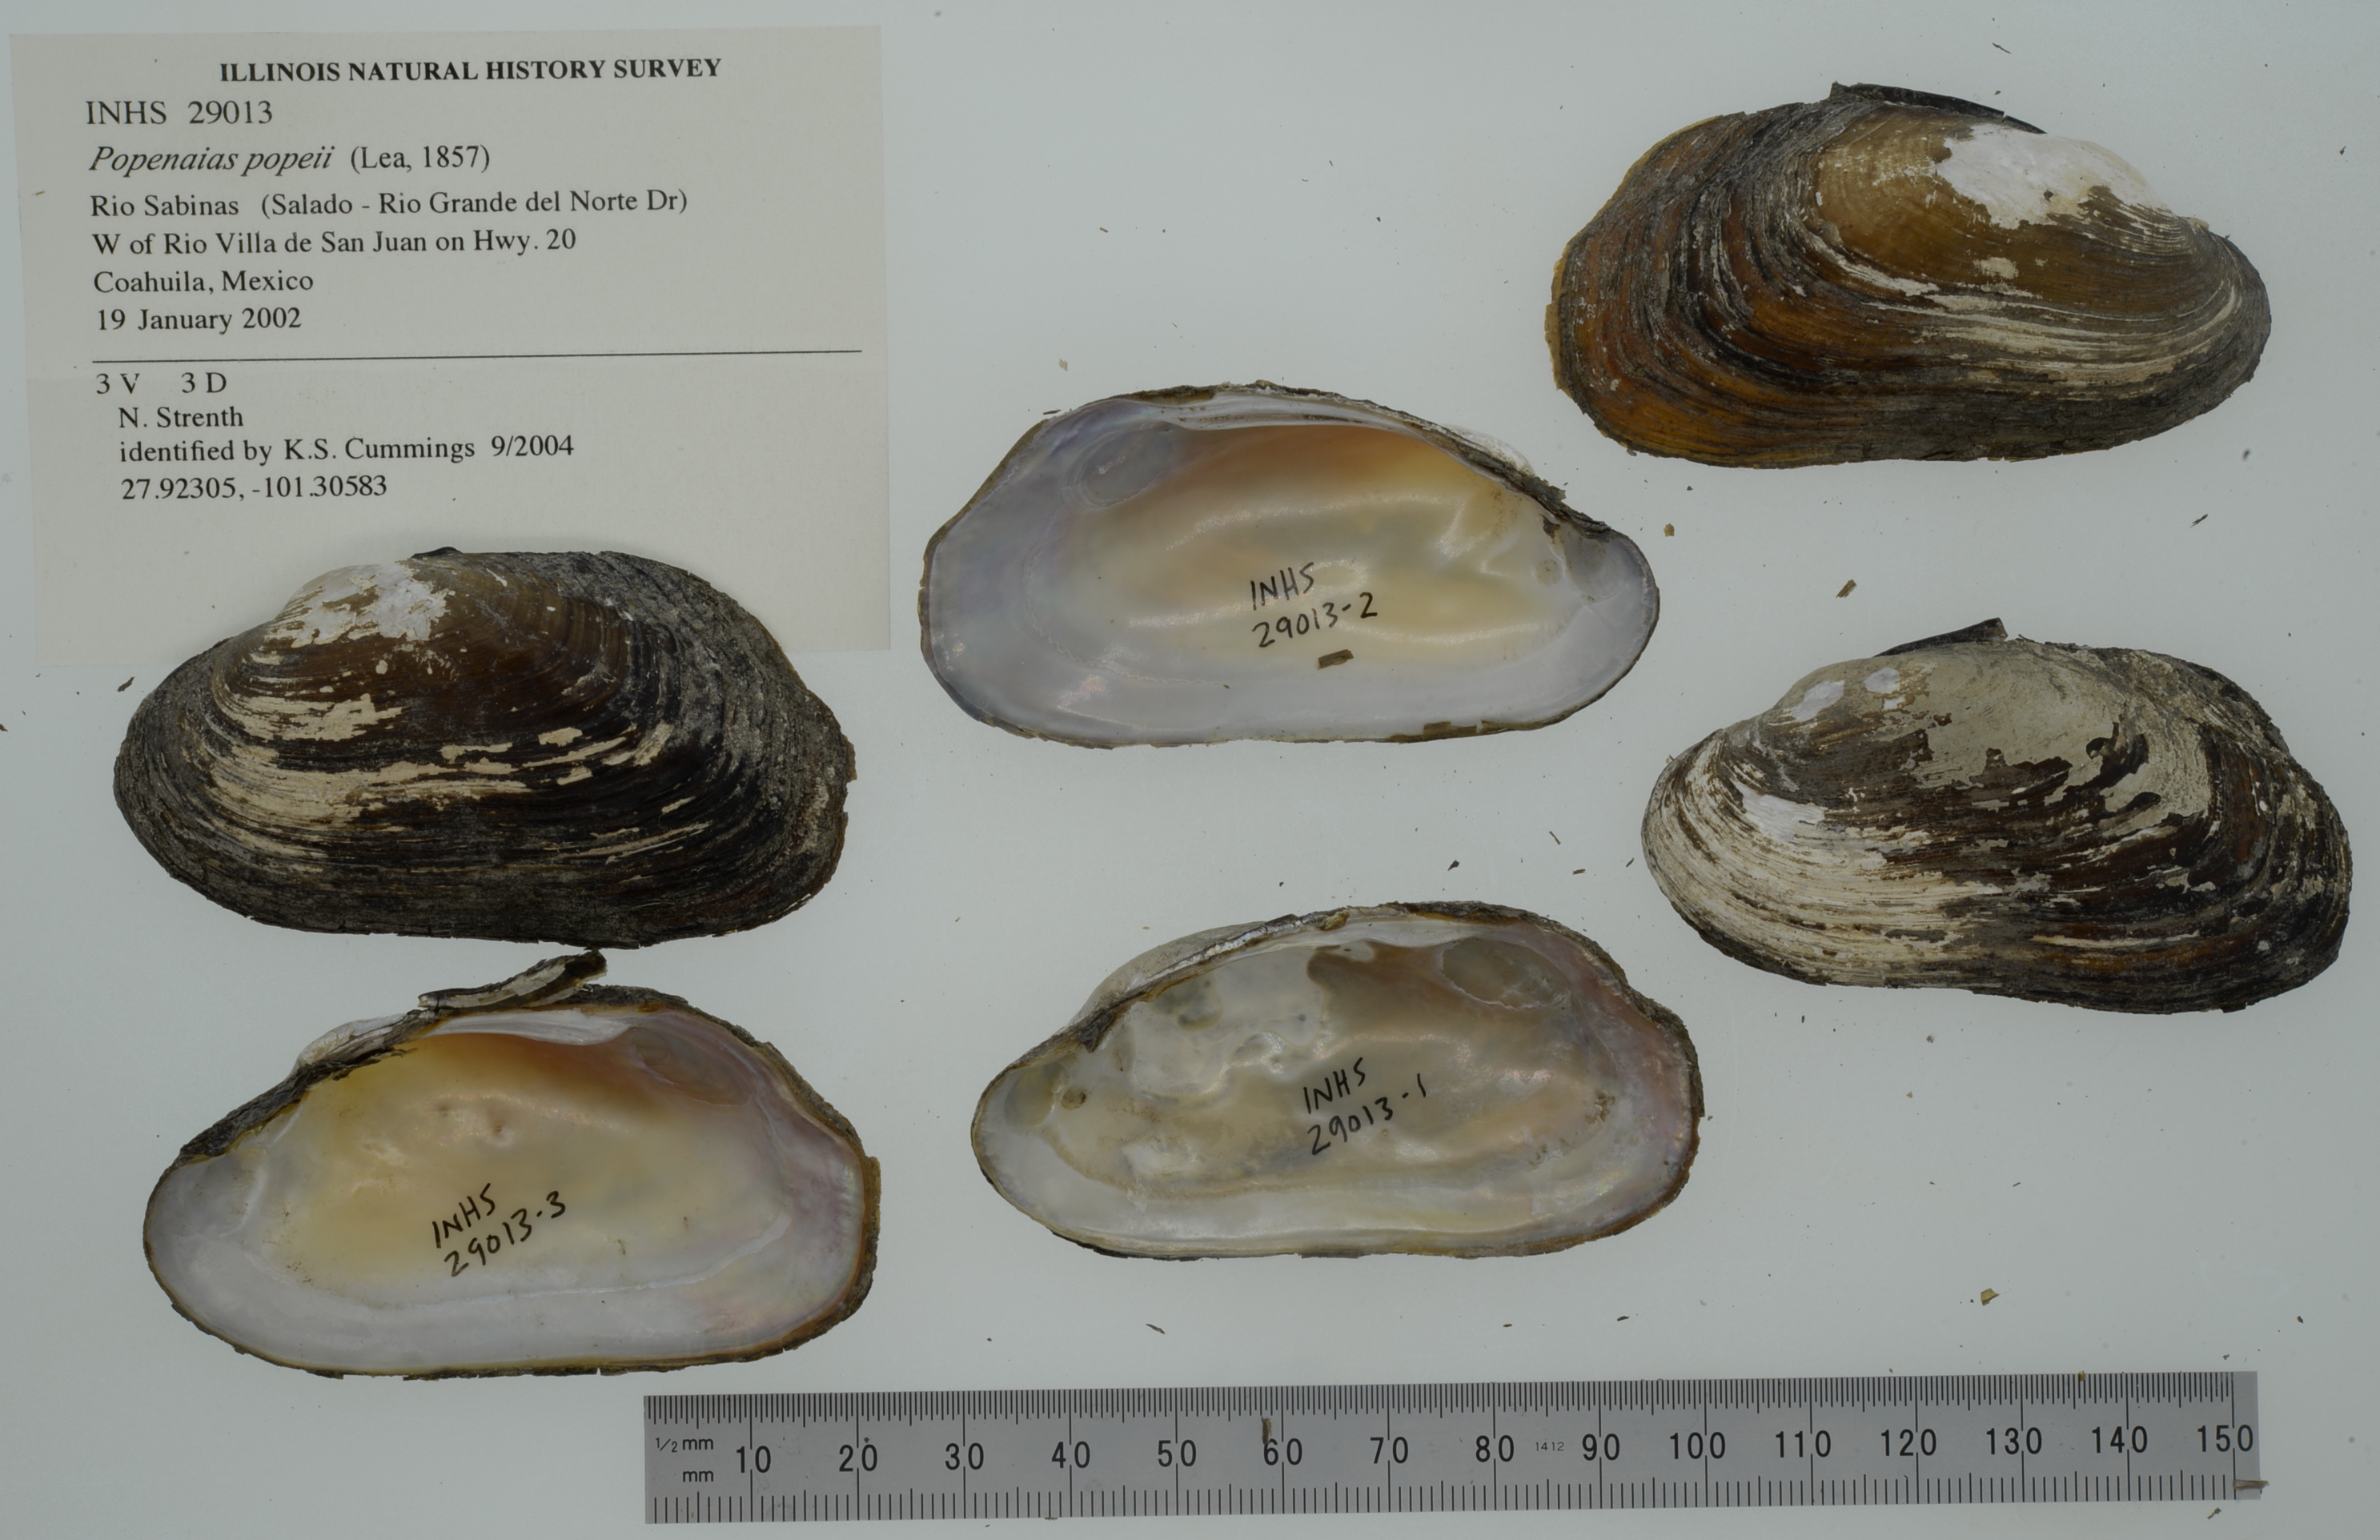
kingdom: Animalia
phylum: Mollusca
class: Bivalvia
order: Unionida
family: Unionidae
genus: Popenaias
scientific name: Popenaias popeii
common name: Texas hornshell
